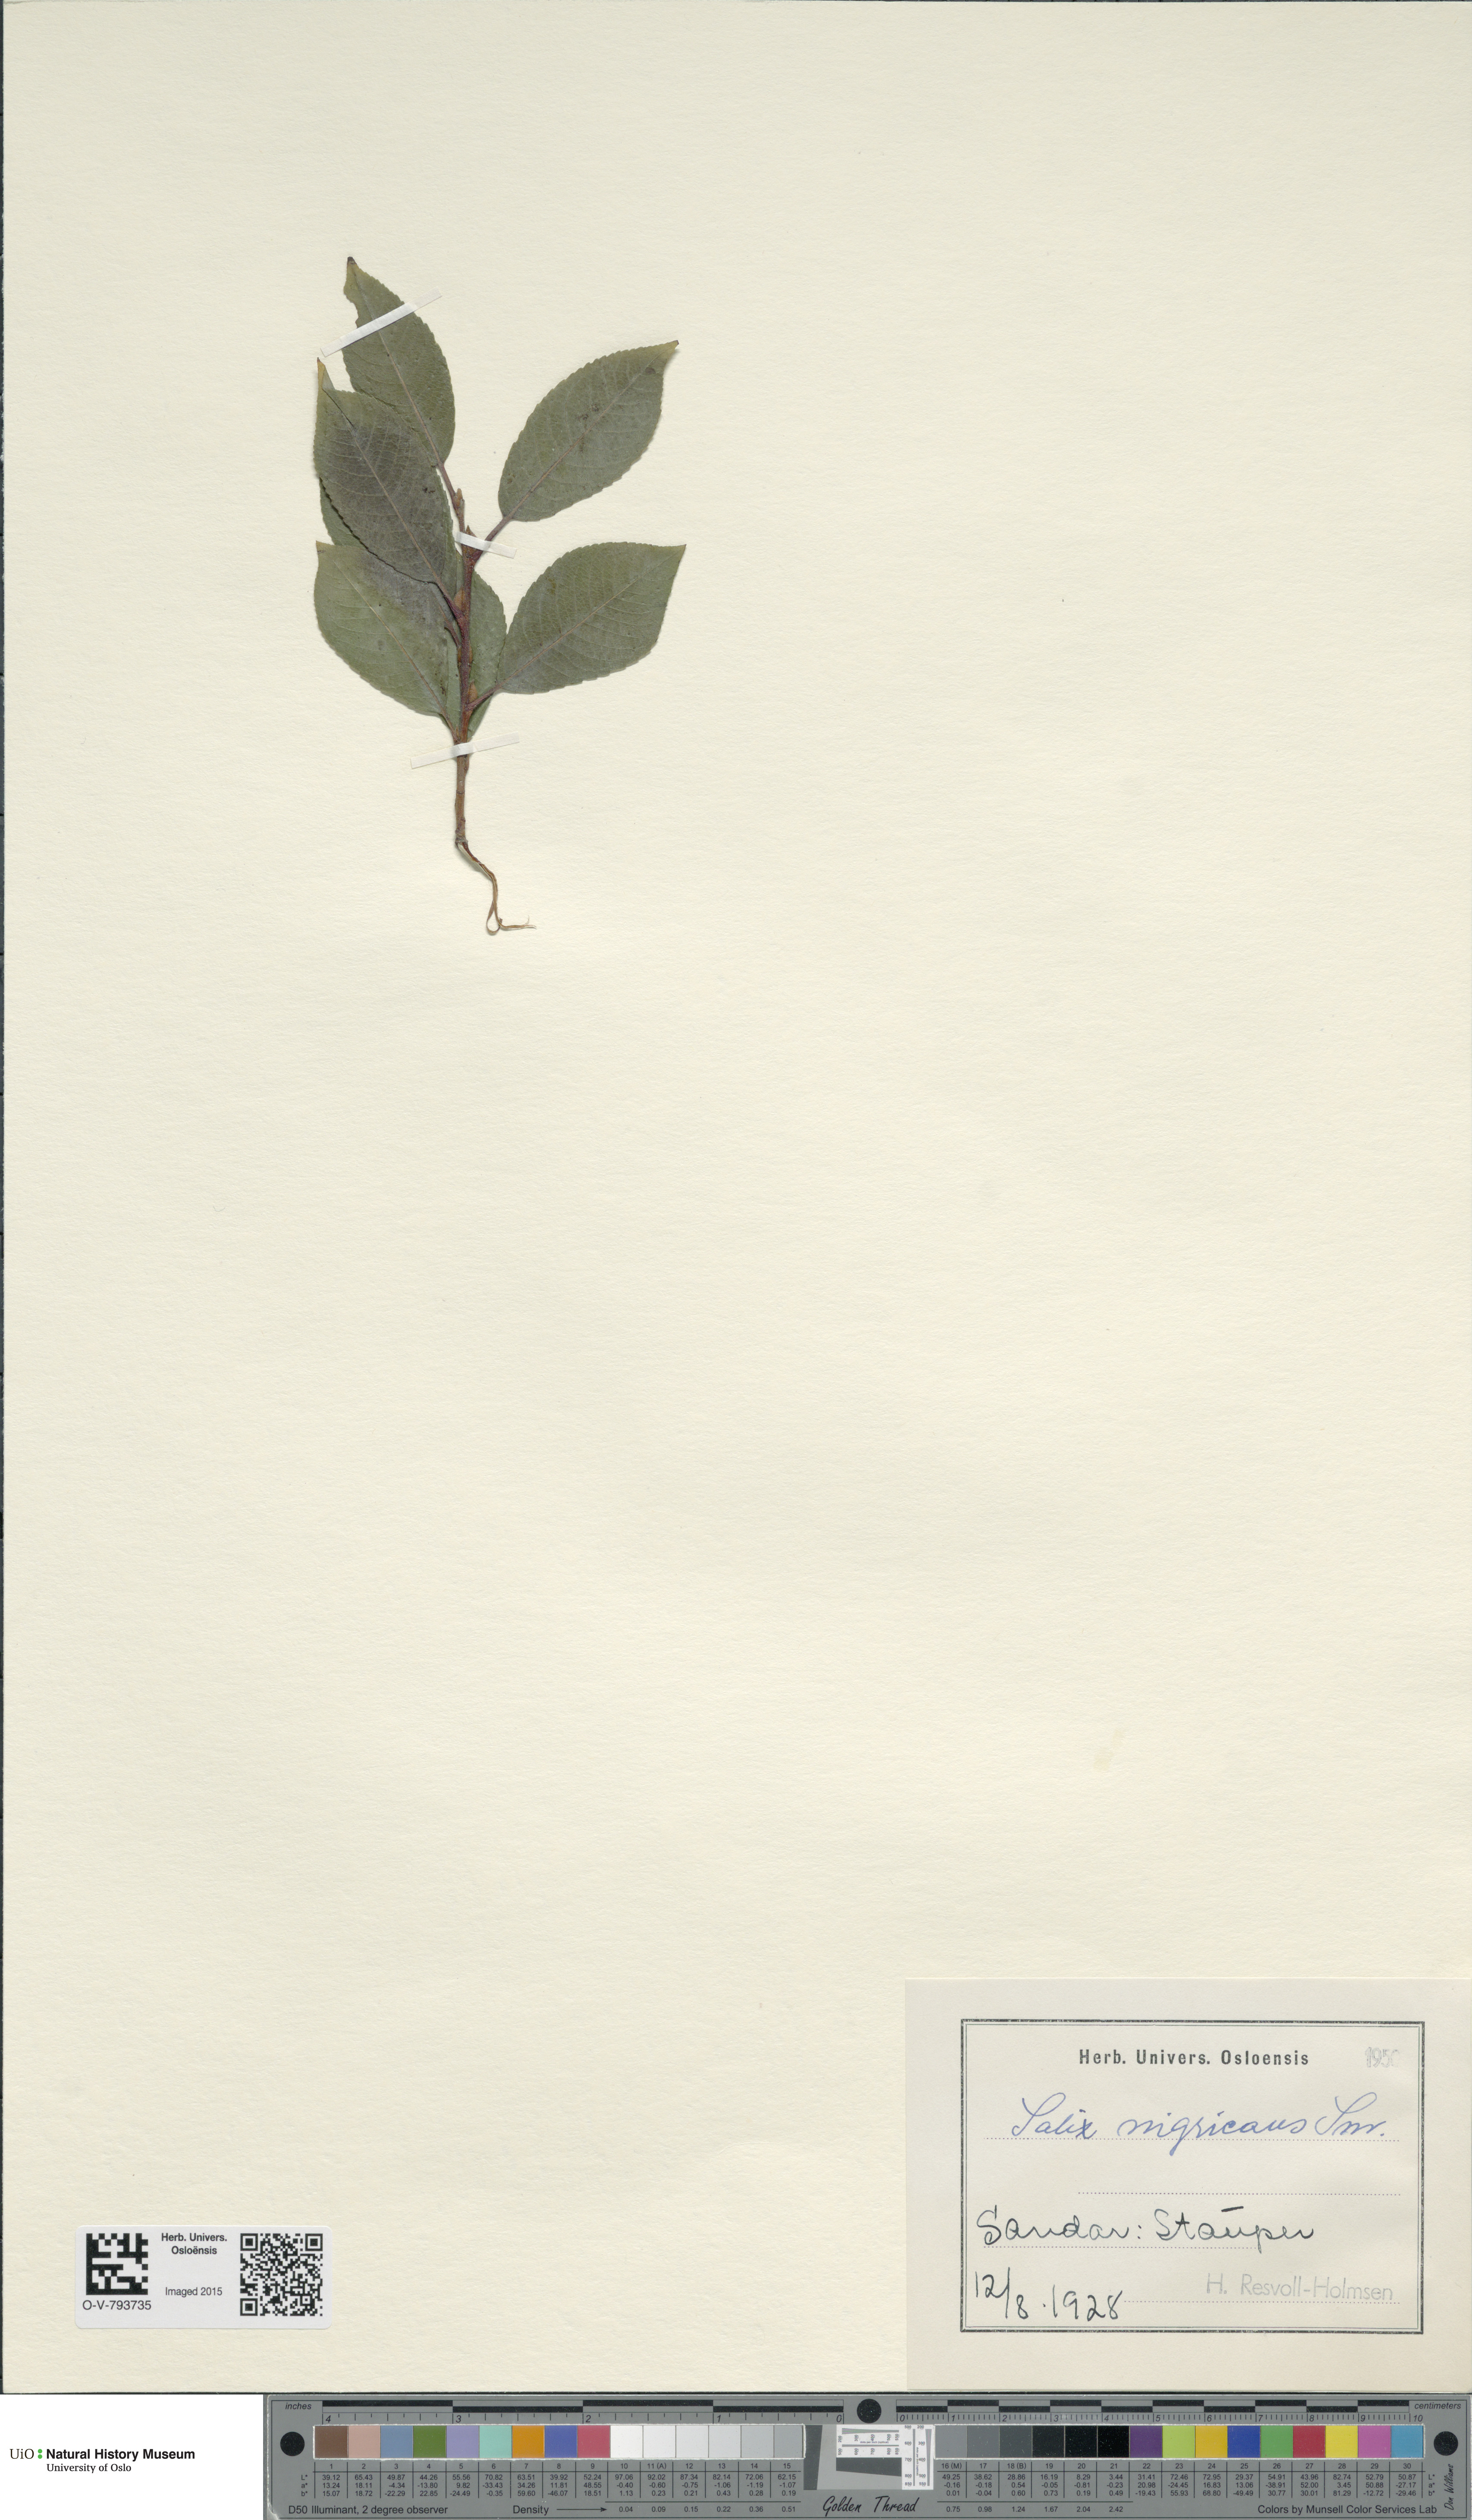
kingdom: Plantae
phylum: Tracheophyta
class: Magnoliopsida
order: Malpighiales
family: Salicaceae
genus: Salix
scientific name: Salix myrsinifolia
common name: Dark-leaved willow
